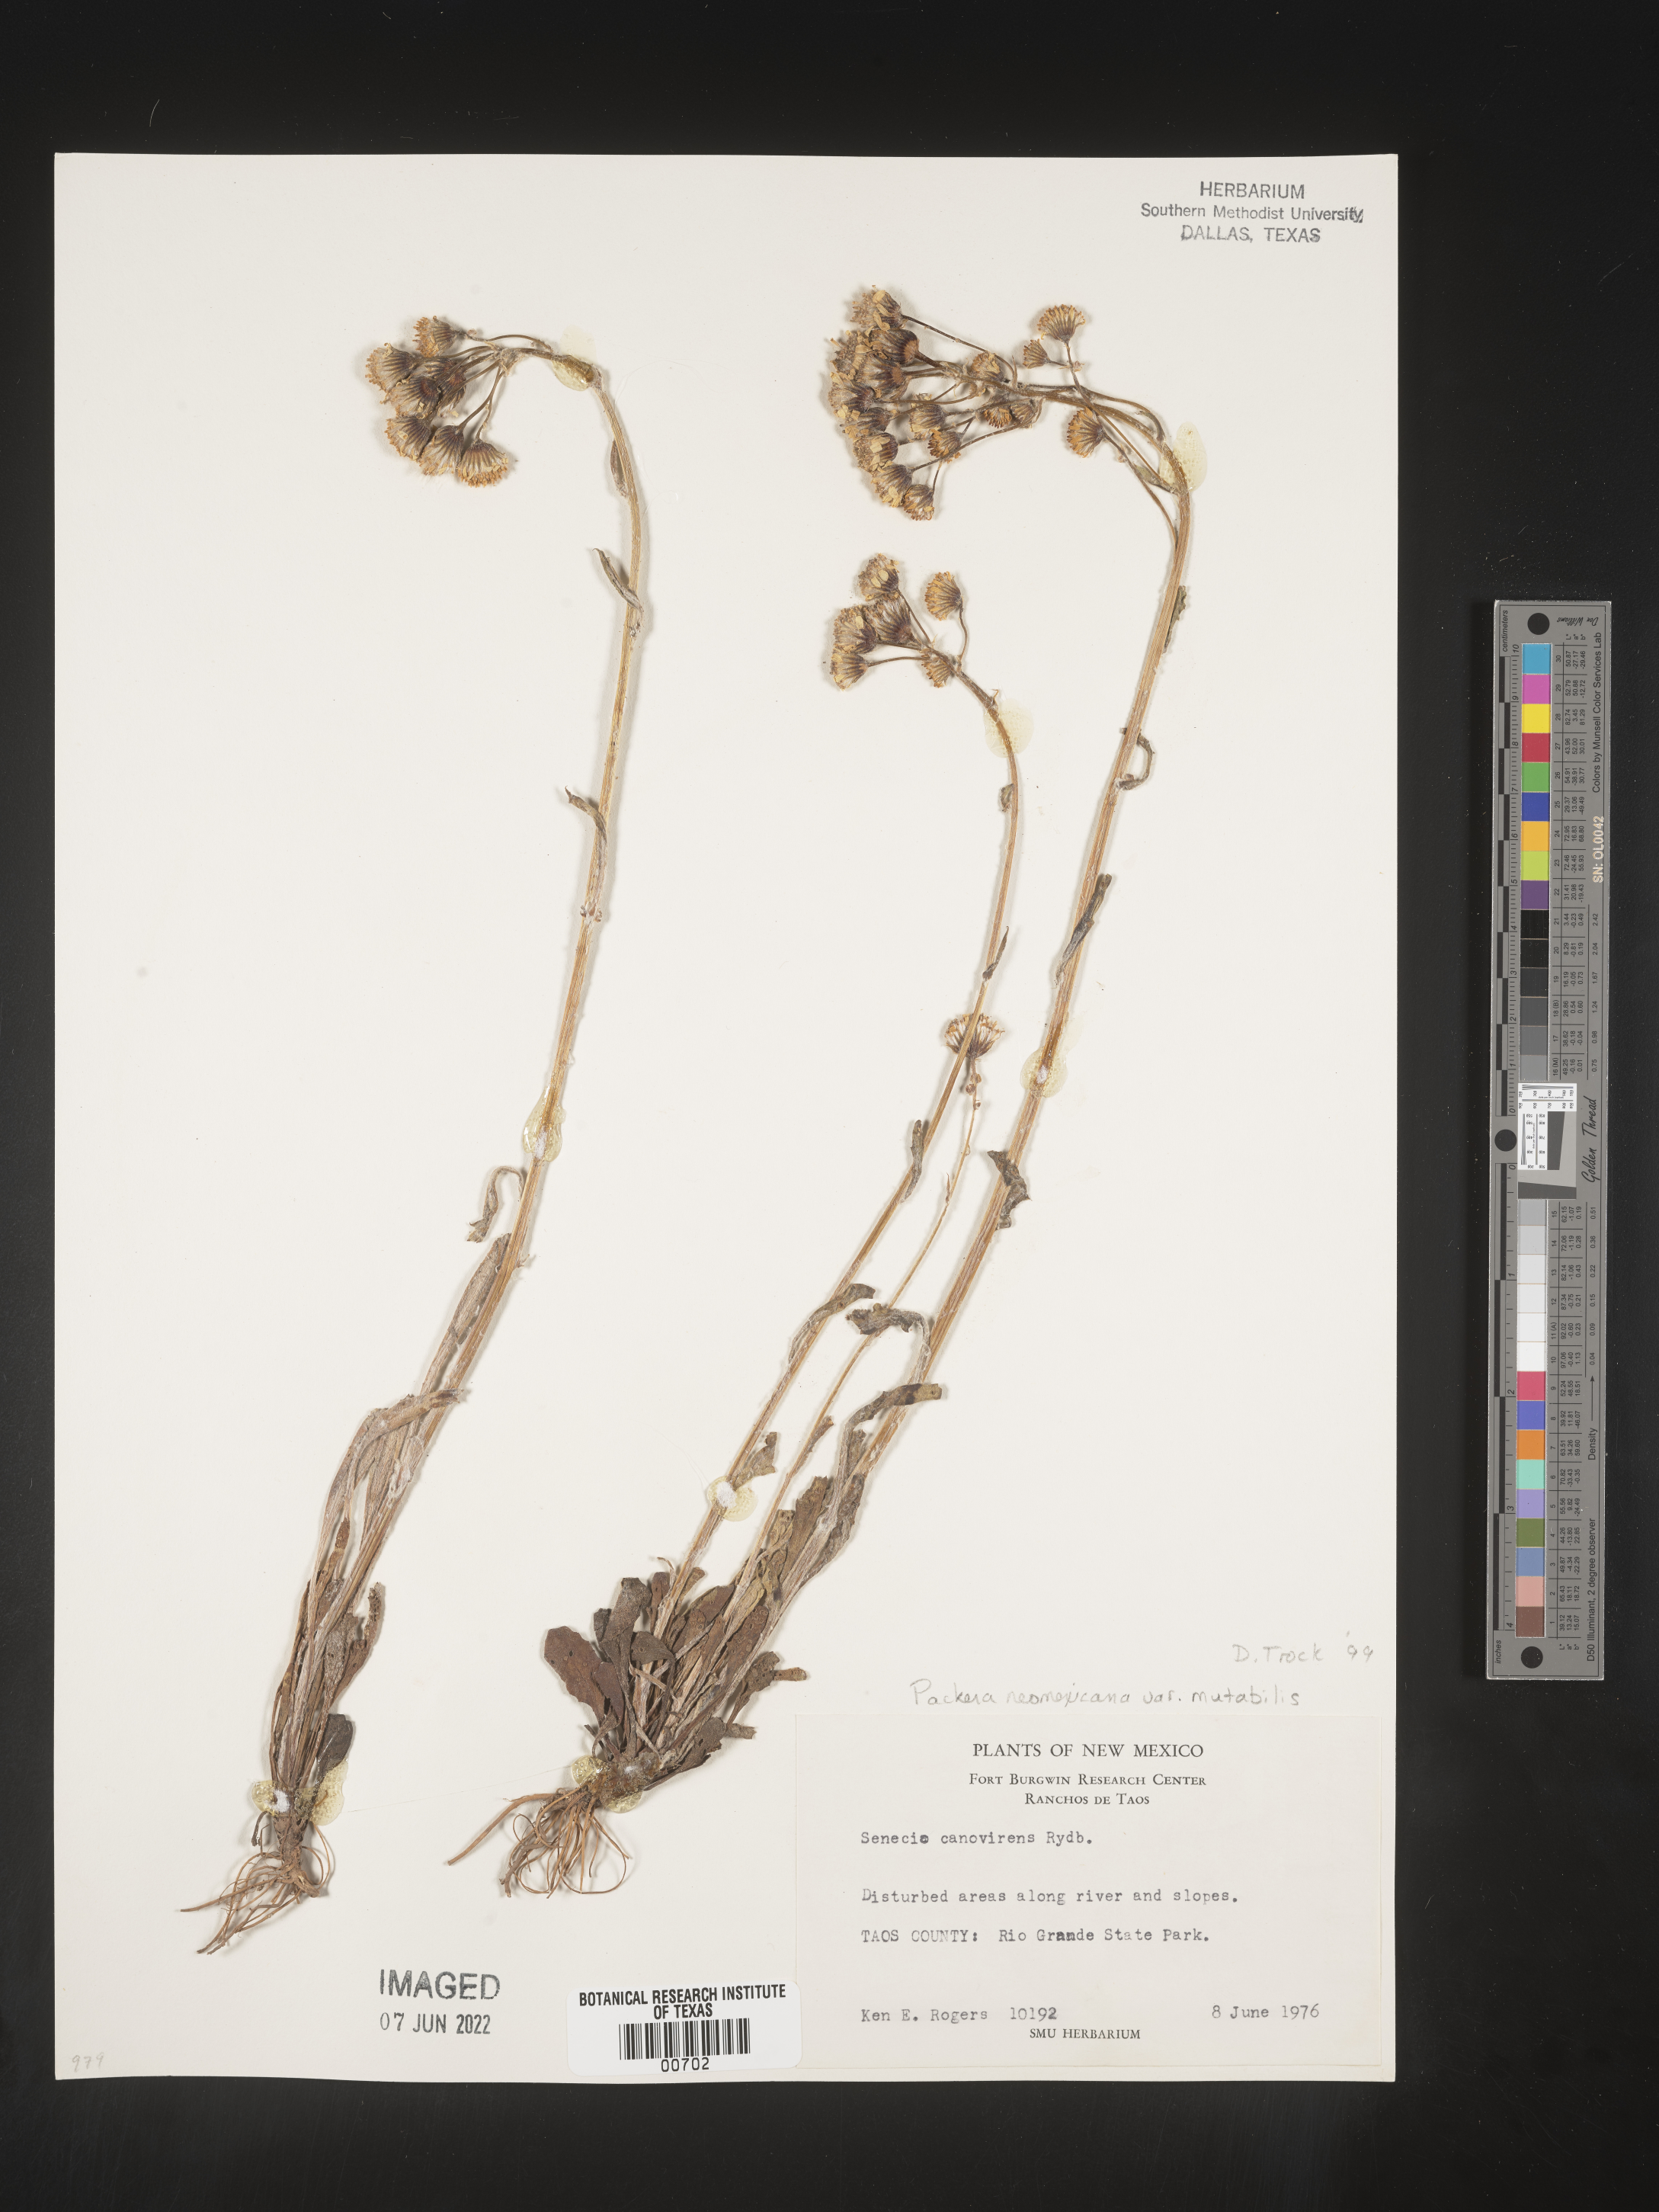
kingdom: Plantae
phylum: Tracheophyta
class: Magnoliopsida
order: Asterales
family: Asteraceae
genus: Packera
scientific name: Packera neomexicana
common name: New mexico butterweed
